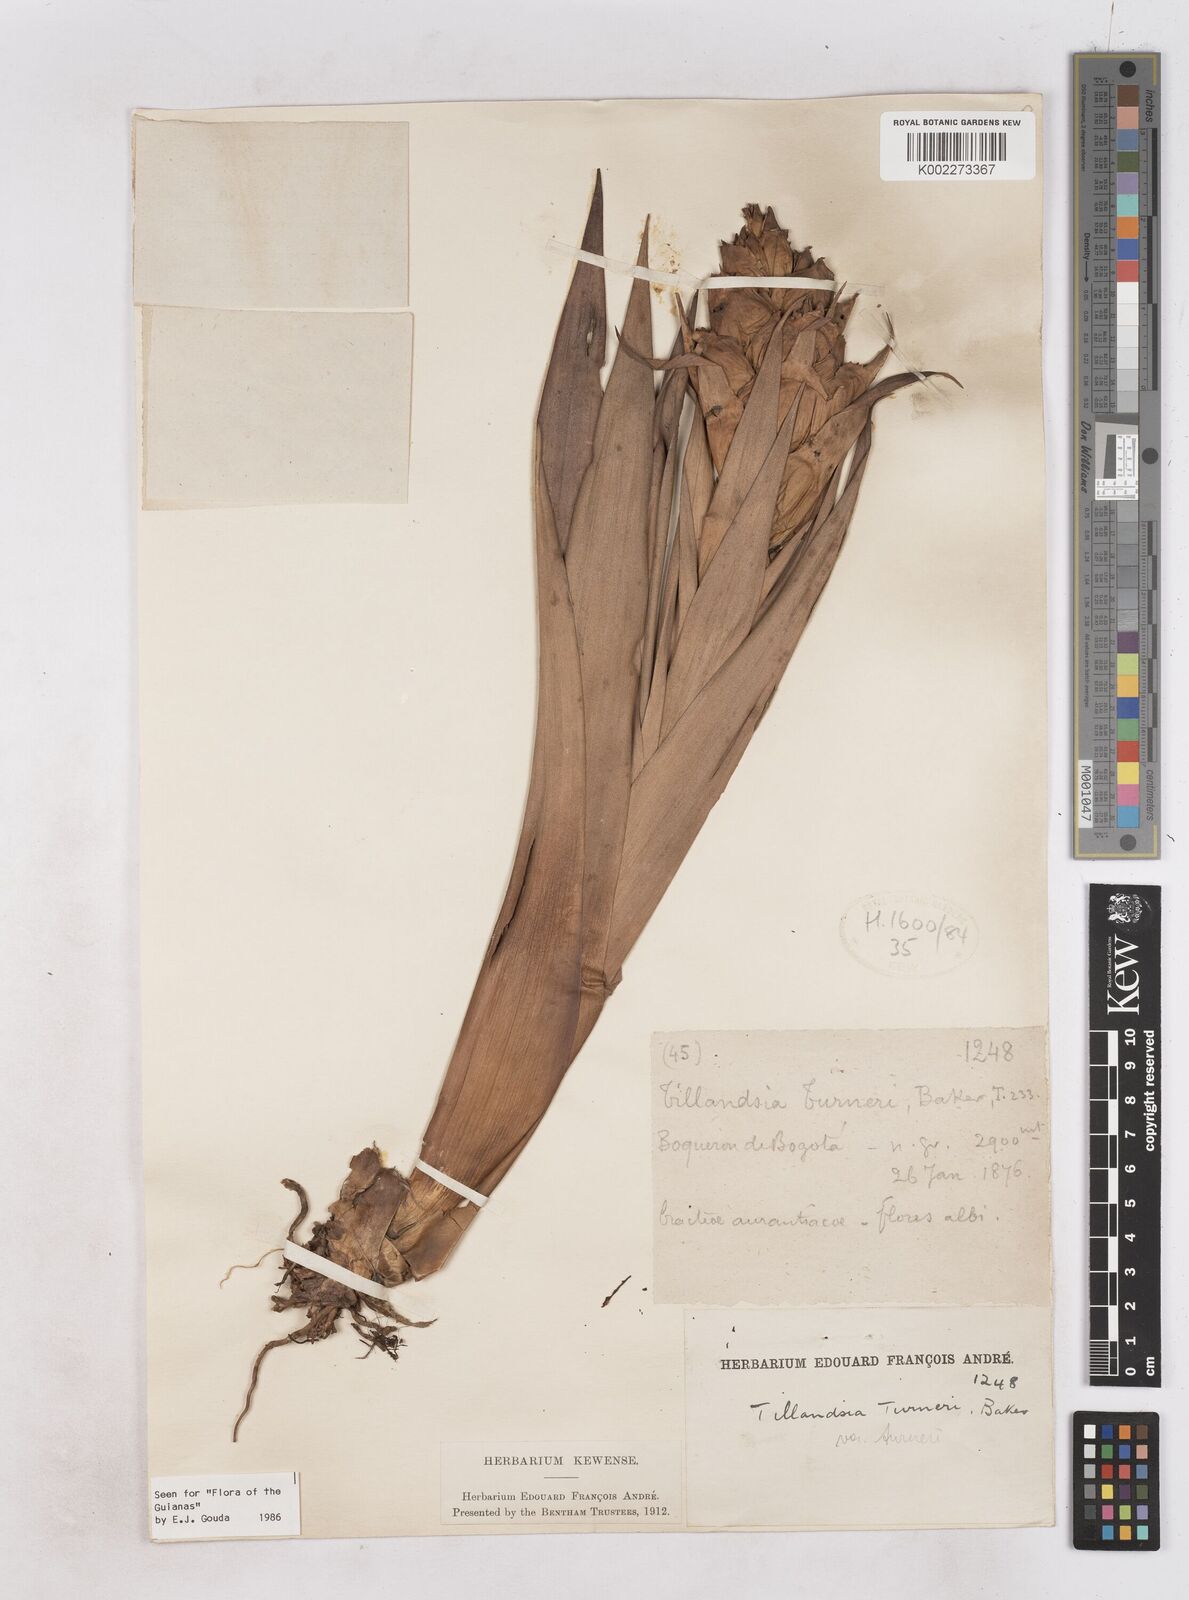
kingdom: Plantae
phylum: Tracheophyta
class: Liliopsida
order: Poales
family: Bromeliaceae
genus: Tillandsia
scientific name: Tillandsia turneri
